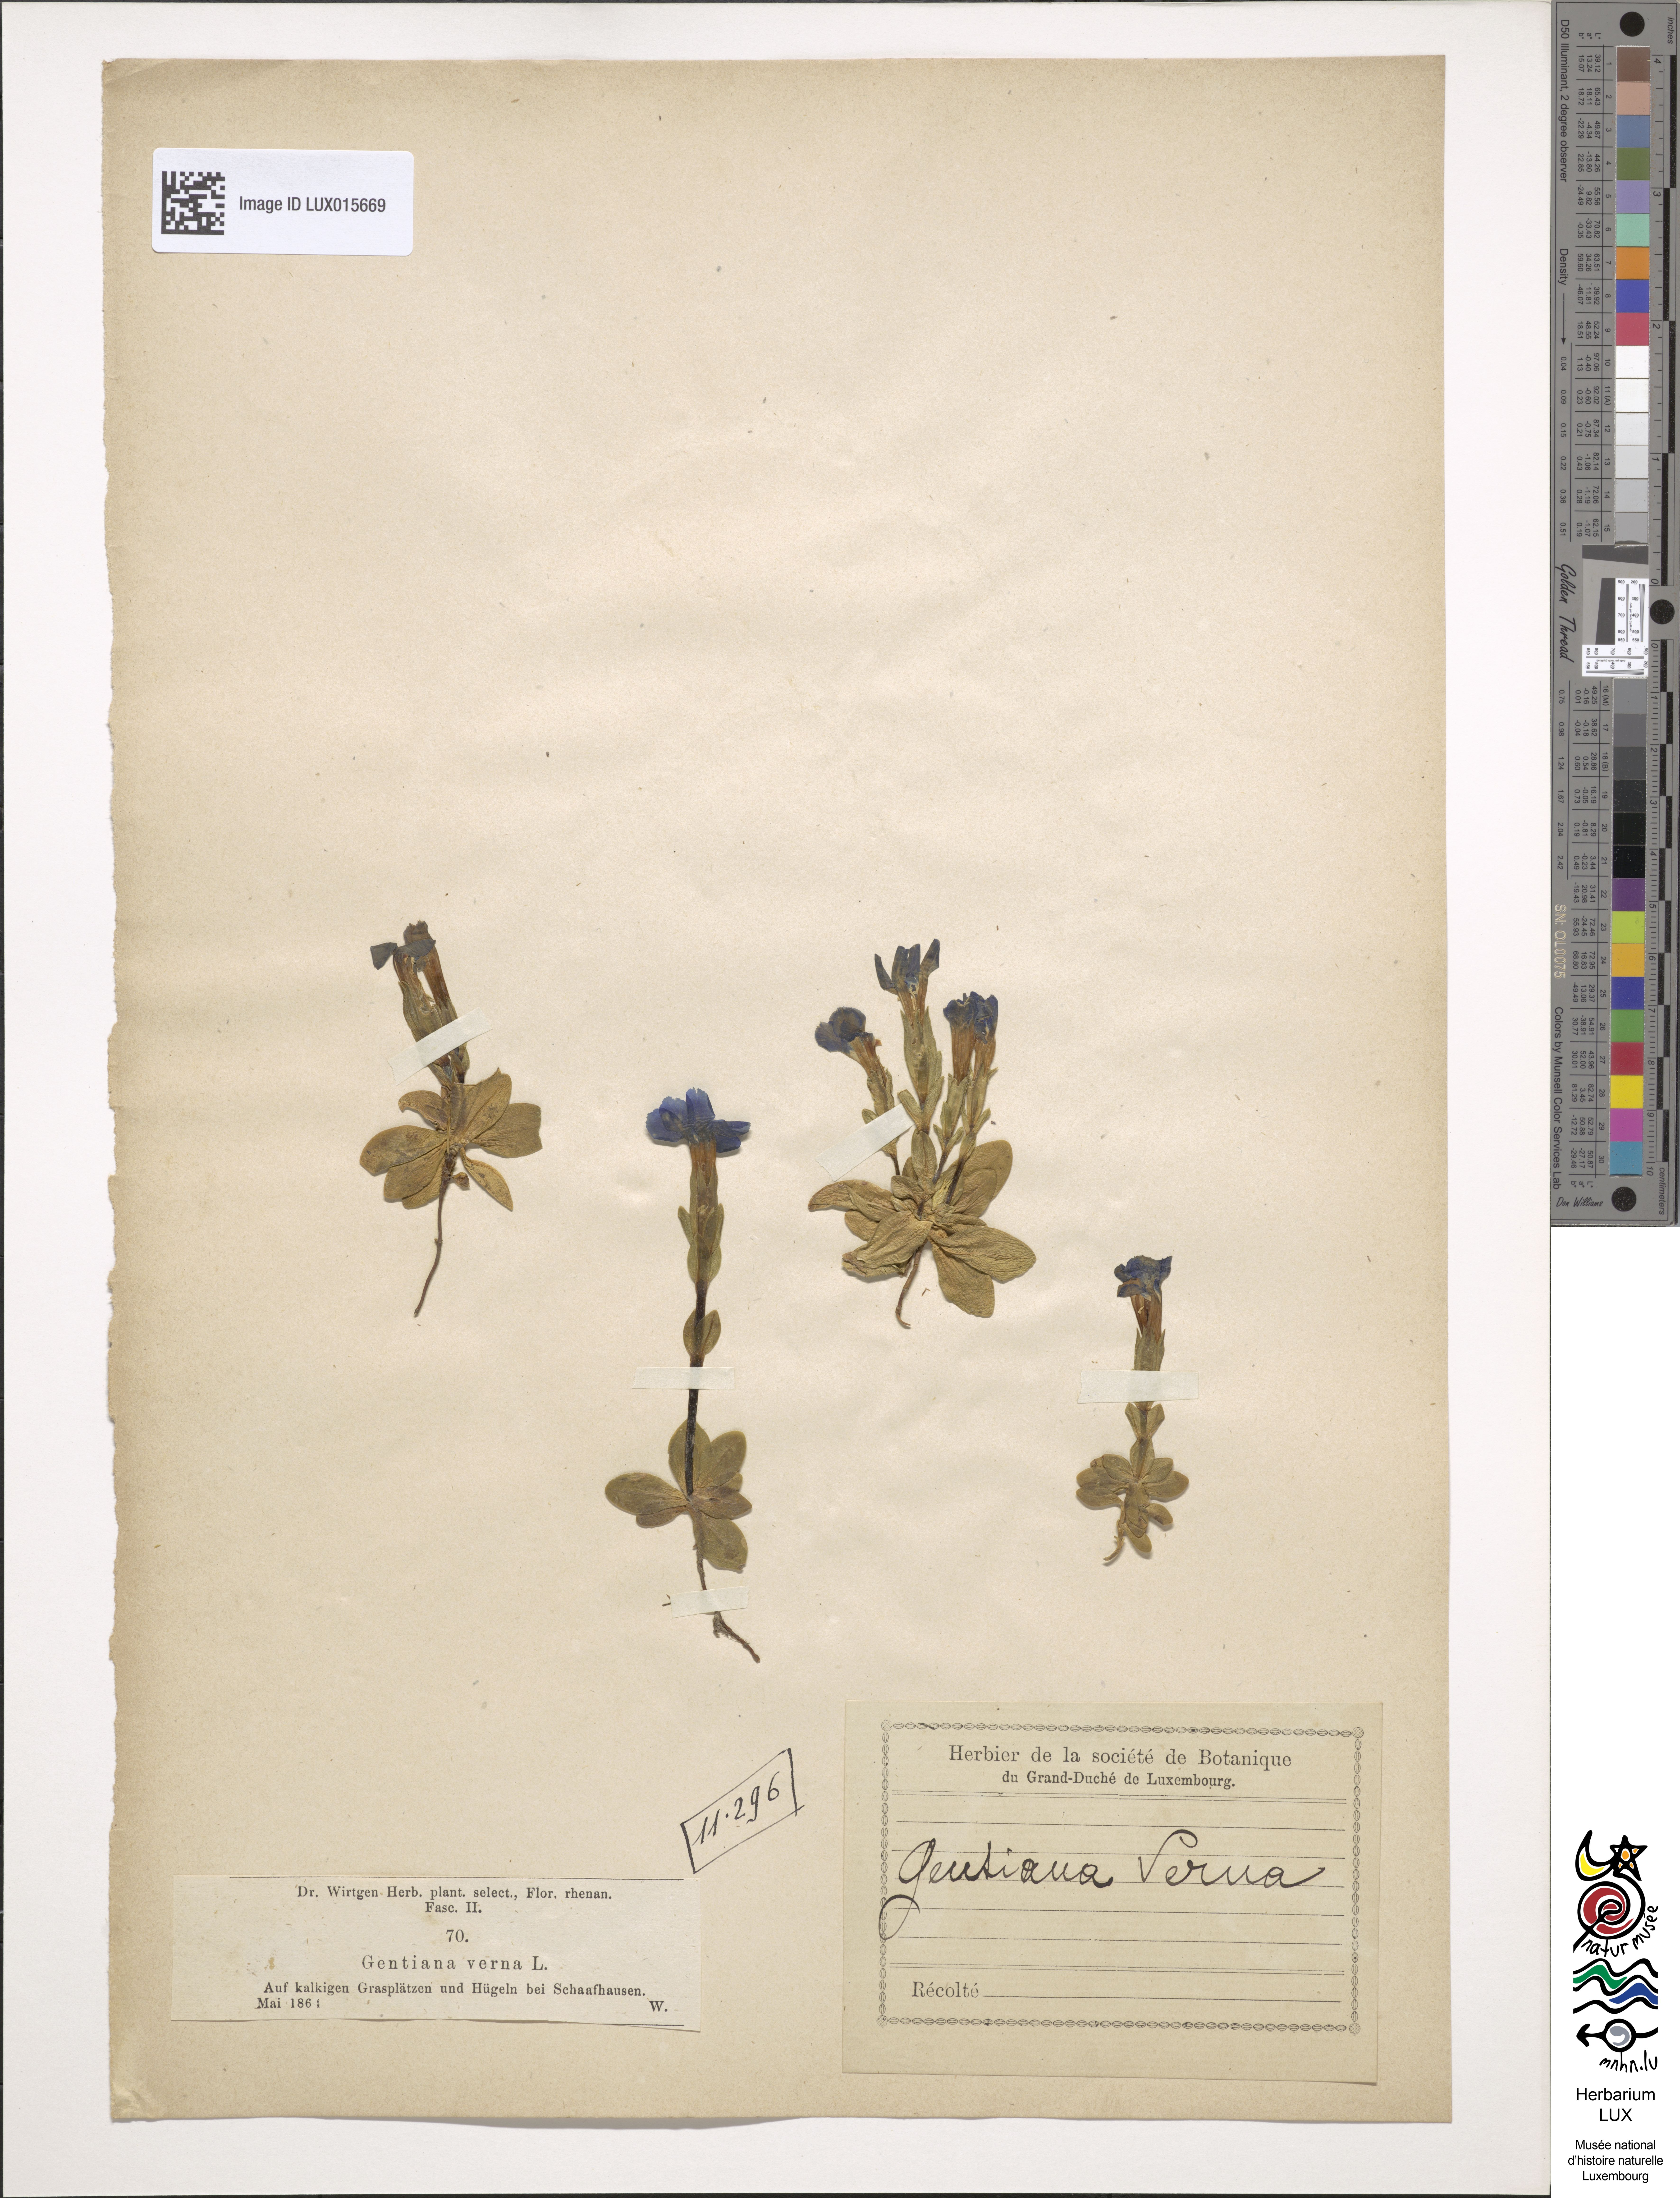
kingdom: Plantae
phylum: Tracheophyta
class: Magnoliopsida
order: Gentianales
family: Gentianaceae
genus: Gentiana
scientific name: Gentiana verna
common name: Spring gentian
